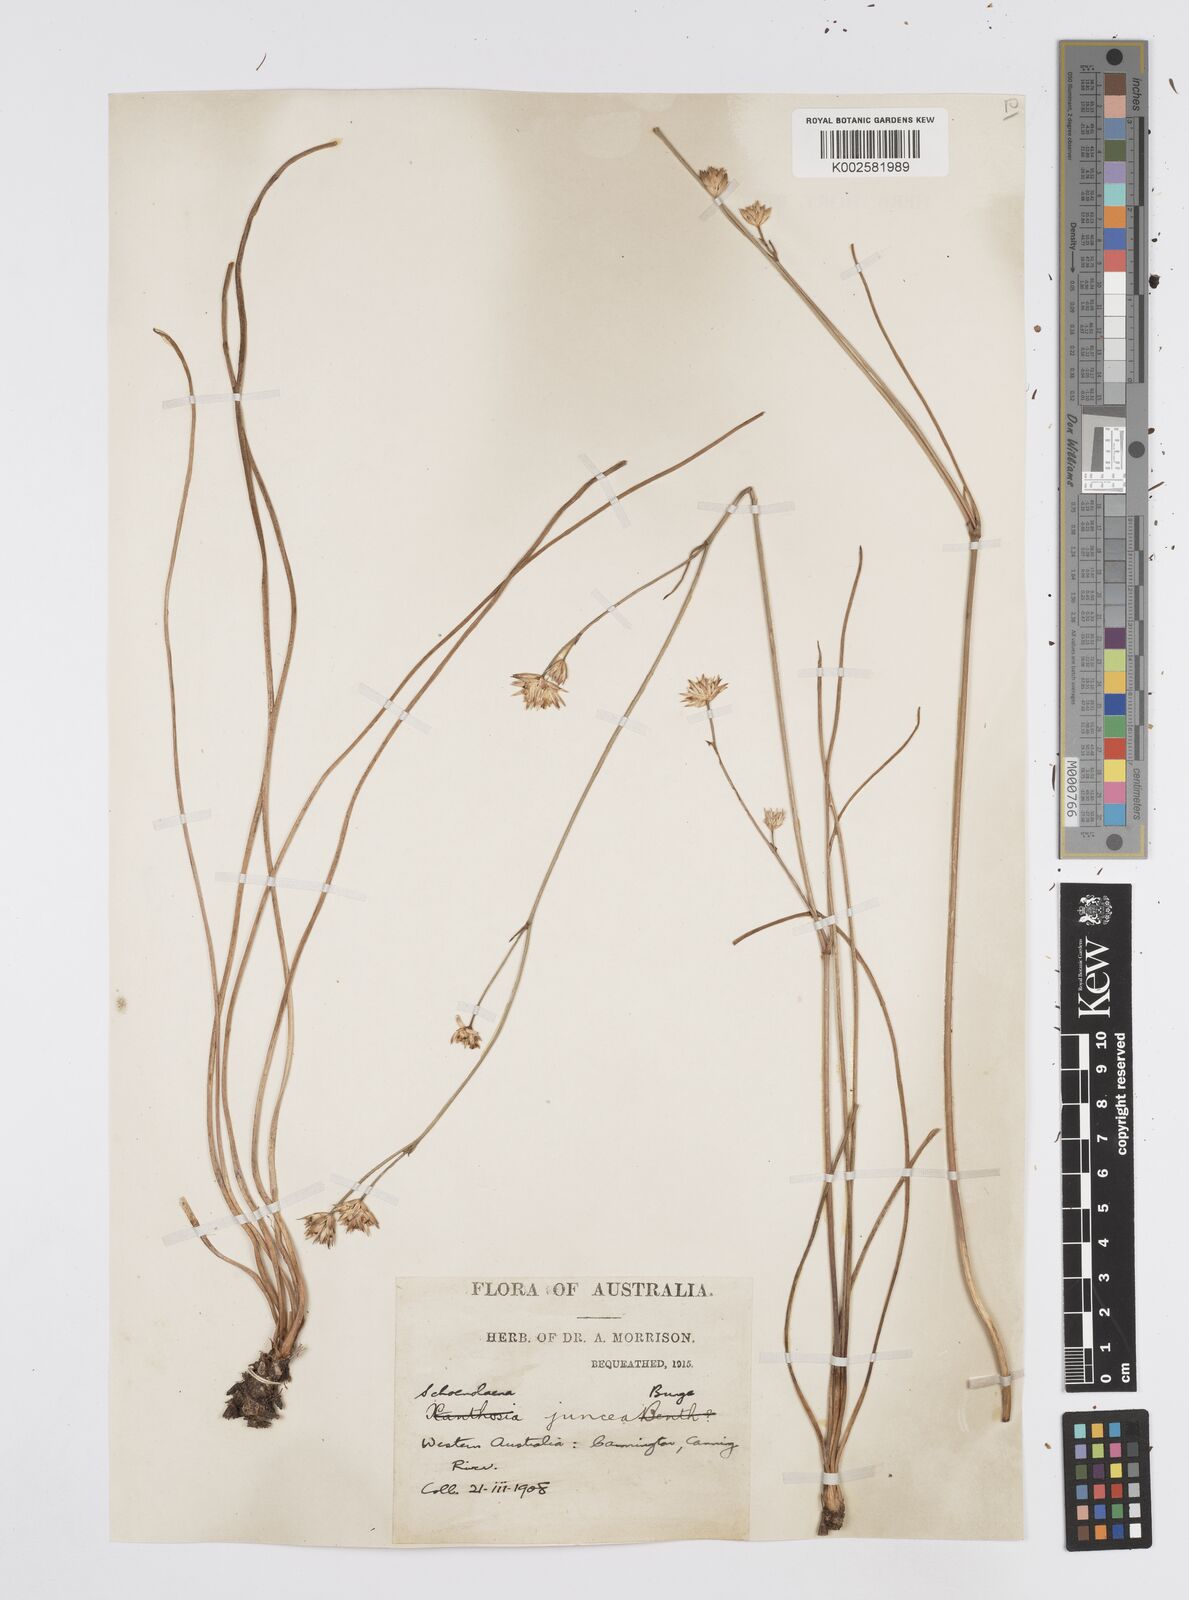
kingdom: Plantae
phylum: Tracheophyta
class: Magnoliopsida
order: Apiales
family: Apiaceae
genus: Schoenolaena
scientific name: Schoenolaena juncea
